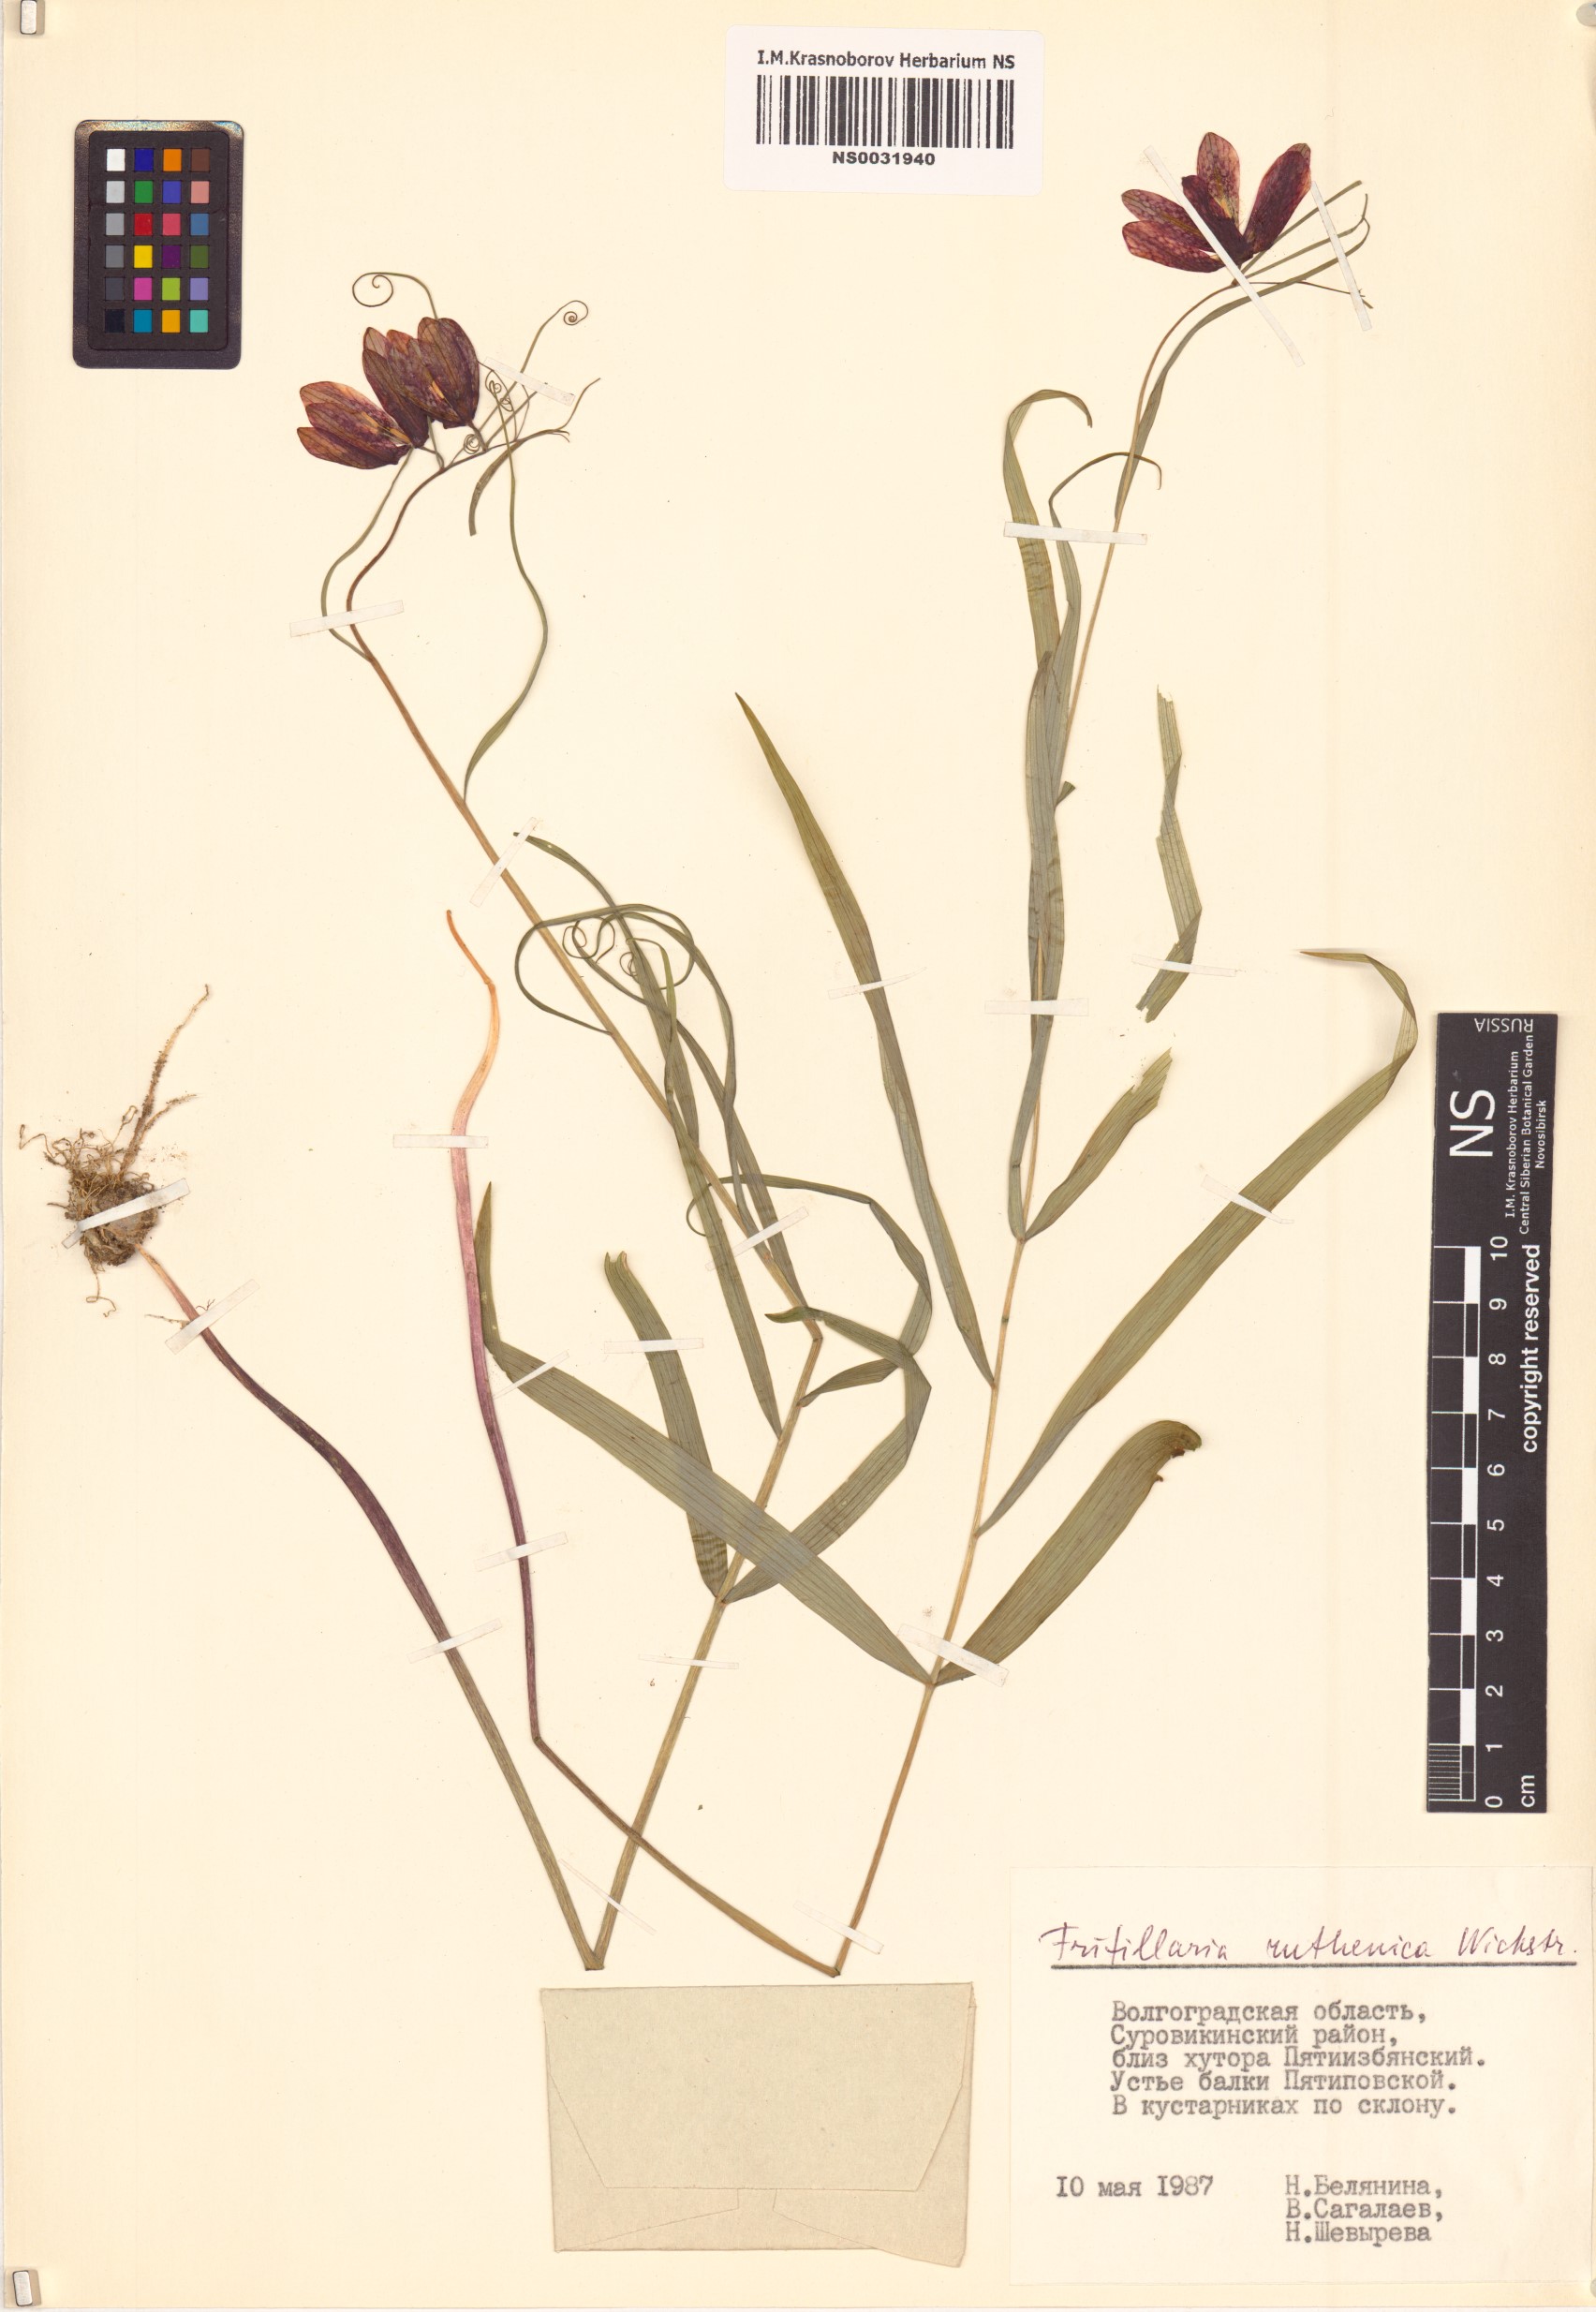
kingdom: Plantae
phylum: Tracheophyta
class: Liliopsida
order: Liliales
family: Liliaceae
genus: Fritillaria
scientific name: Fritillaria ruthenica
